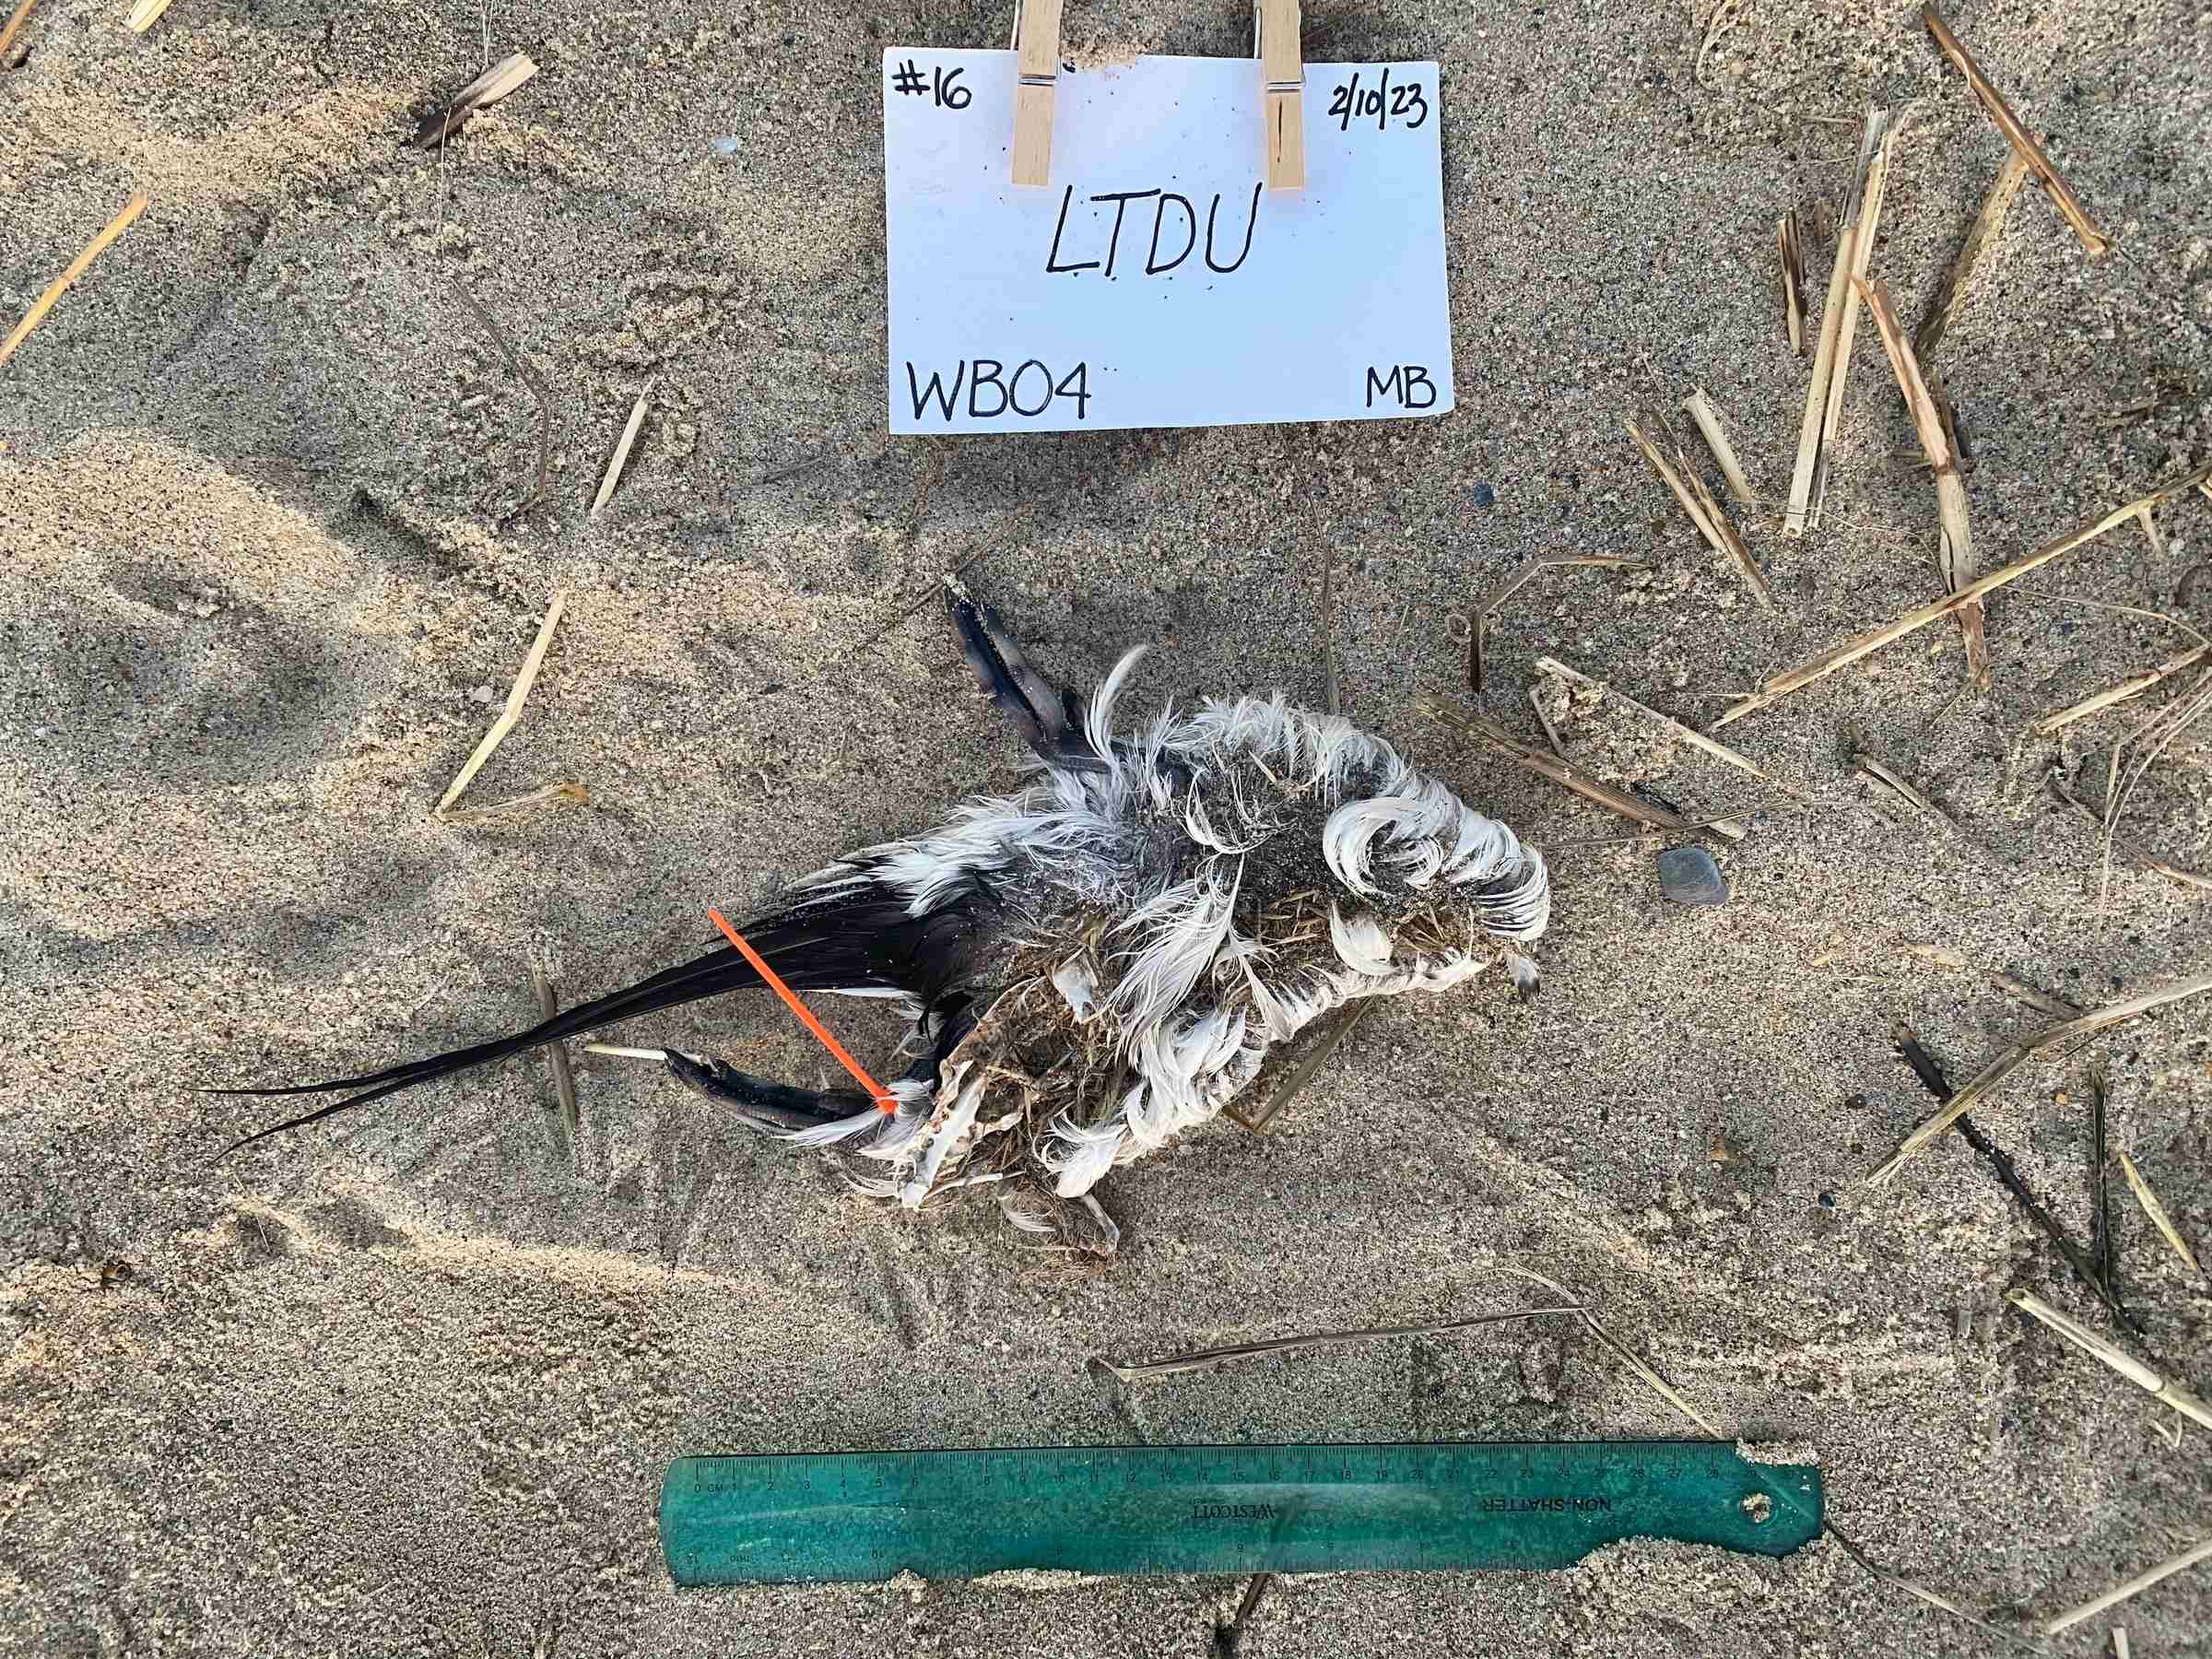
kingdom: Animalia
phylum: Chordata
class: Aves
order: Anseriformes
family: Anatidae
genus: Clangula
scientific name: Clangula hyemalis
